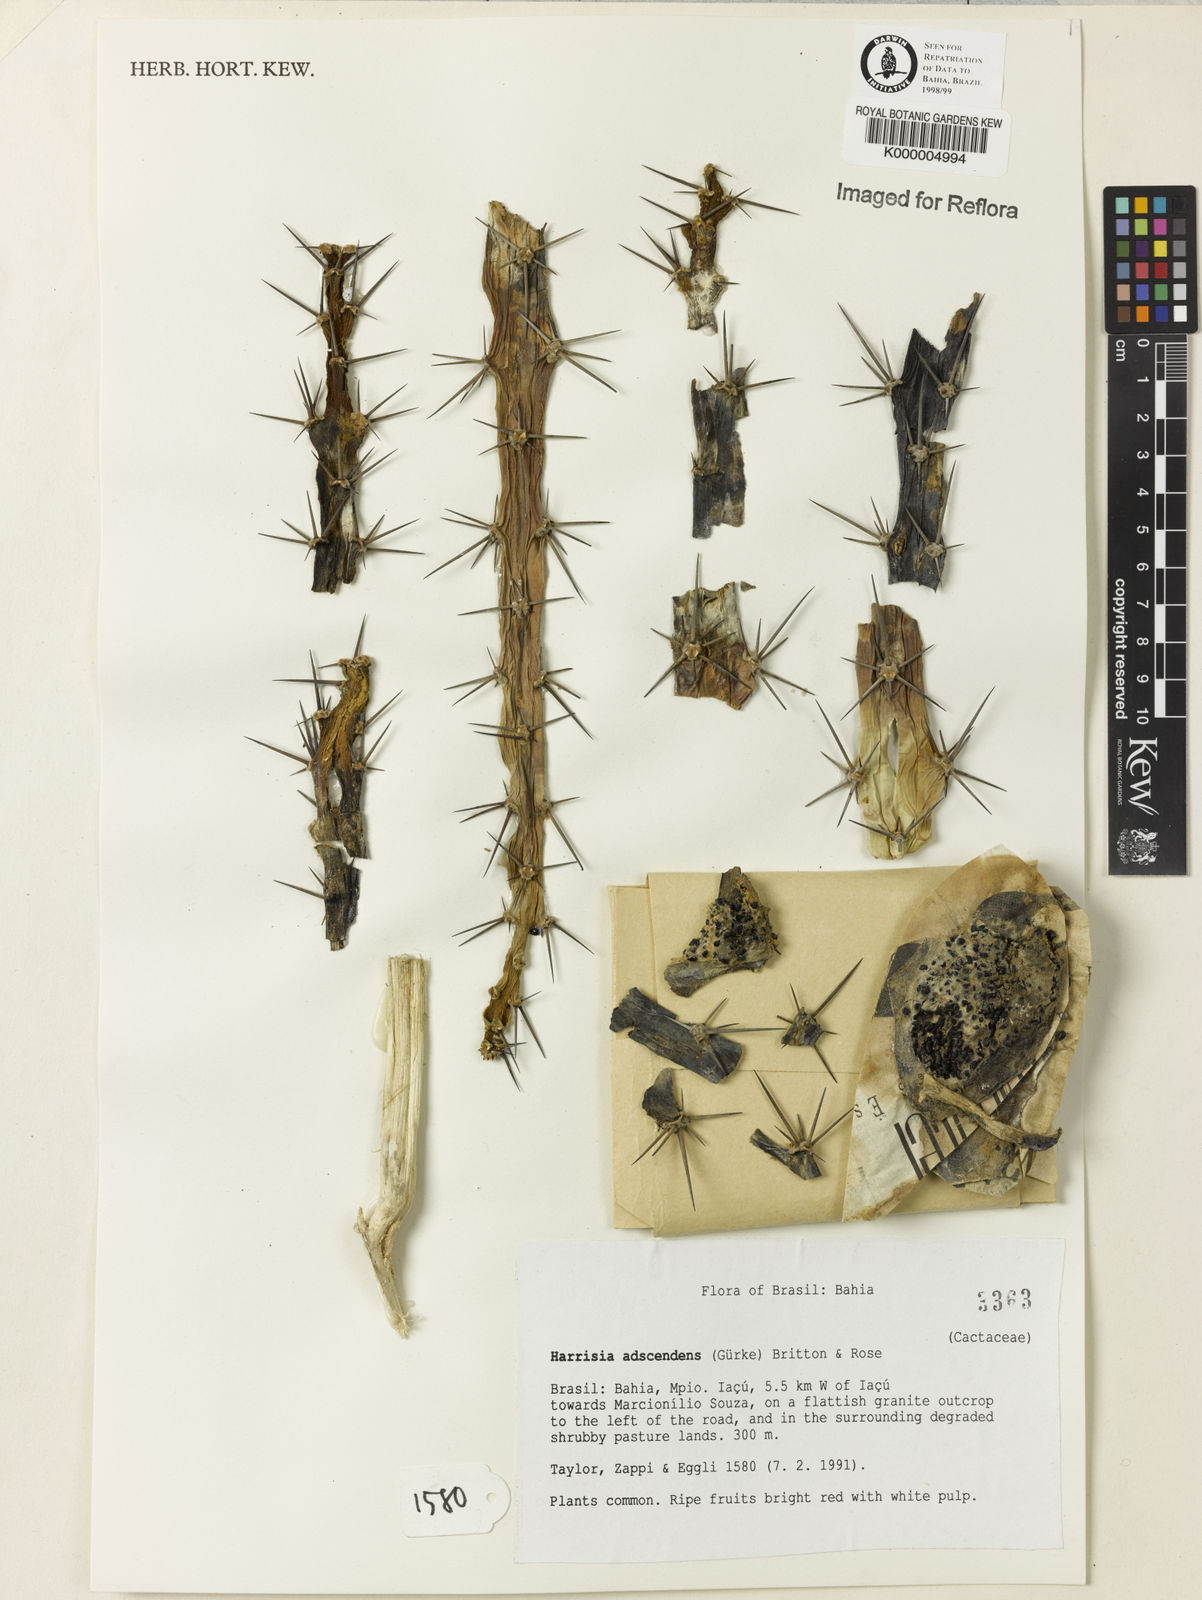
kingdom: Plantae
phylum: Tracheophyta
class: Magnoliopsida
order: Caryophyllales
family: Cactaceae
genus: Harrisia
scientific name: Harrisia adscendens
